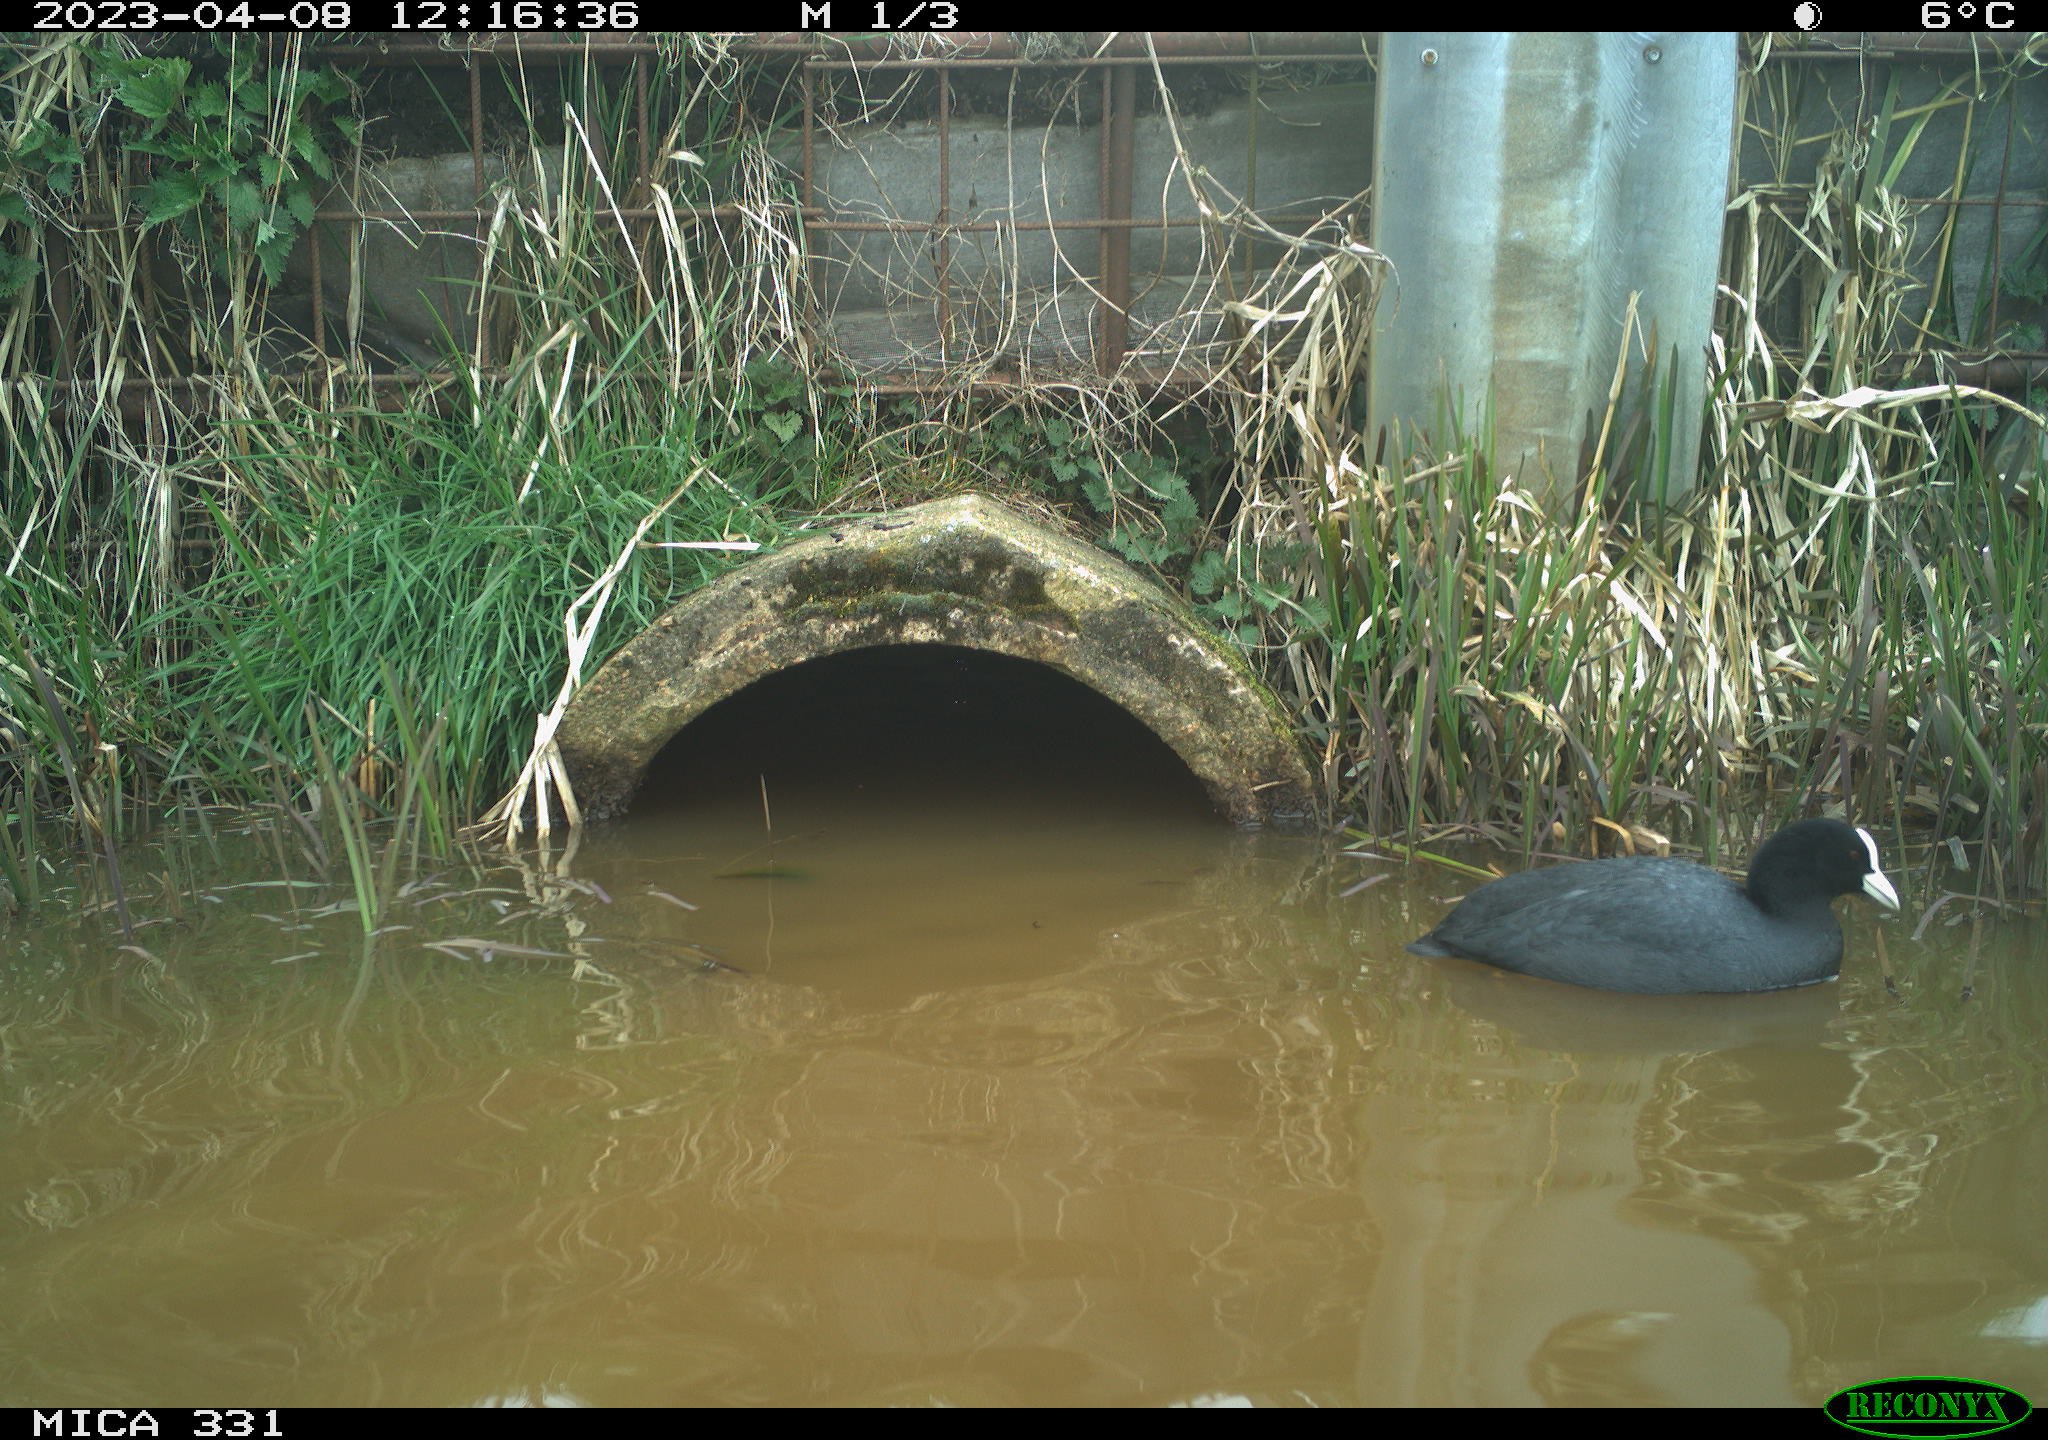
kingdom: Animalia
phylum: Chordata
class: Aves
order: Gruiformes
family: Rallidae
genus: Fulica
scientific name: Fulica atra
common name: Eurasian coot
